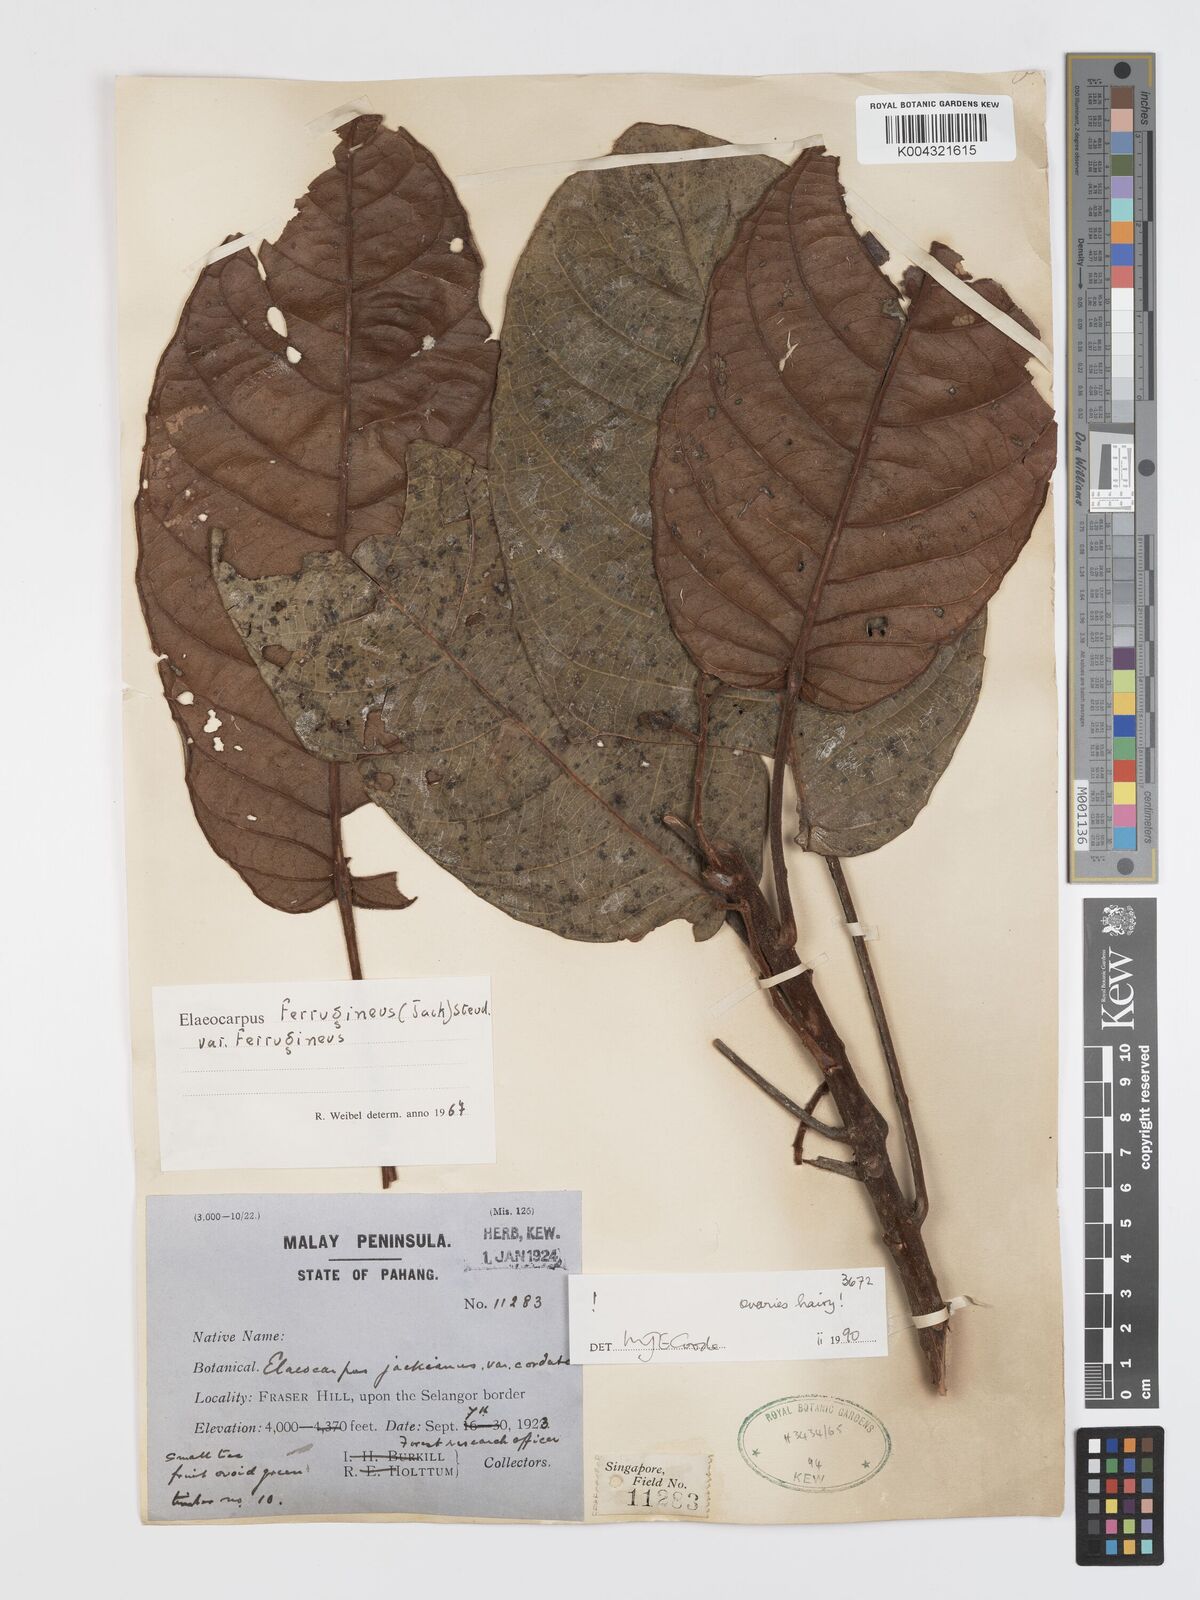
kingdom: Plantae
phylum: Tracheophyta
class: Magnoliopsida
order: Oxalidales
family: Elaeocarpaceae
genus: Elaeocarpus
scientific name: Elaeocarpus ferrugineus
